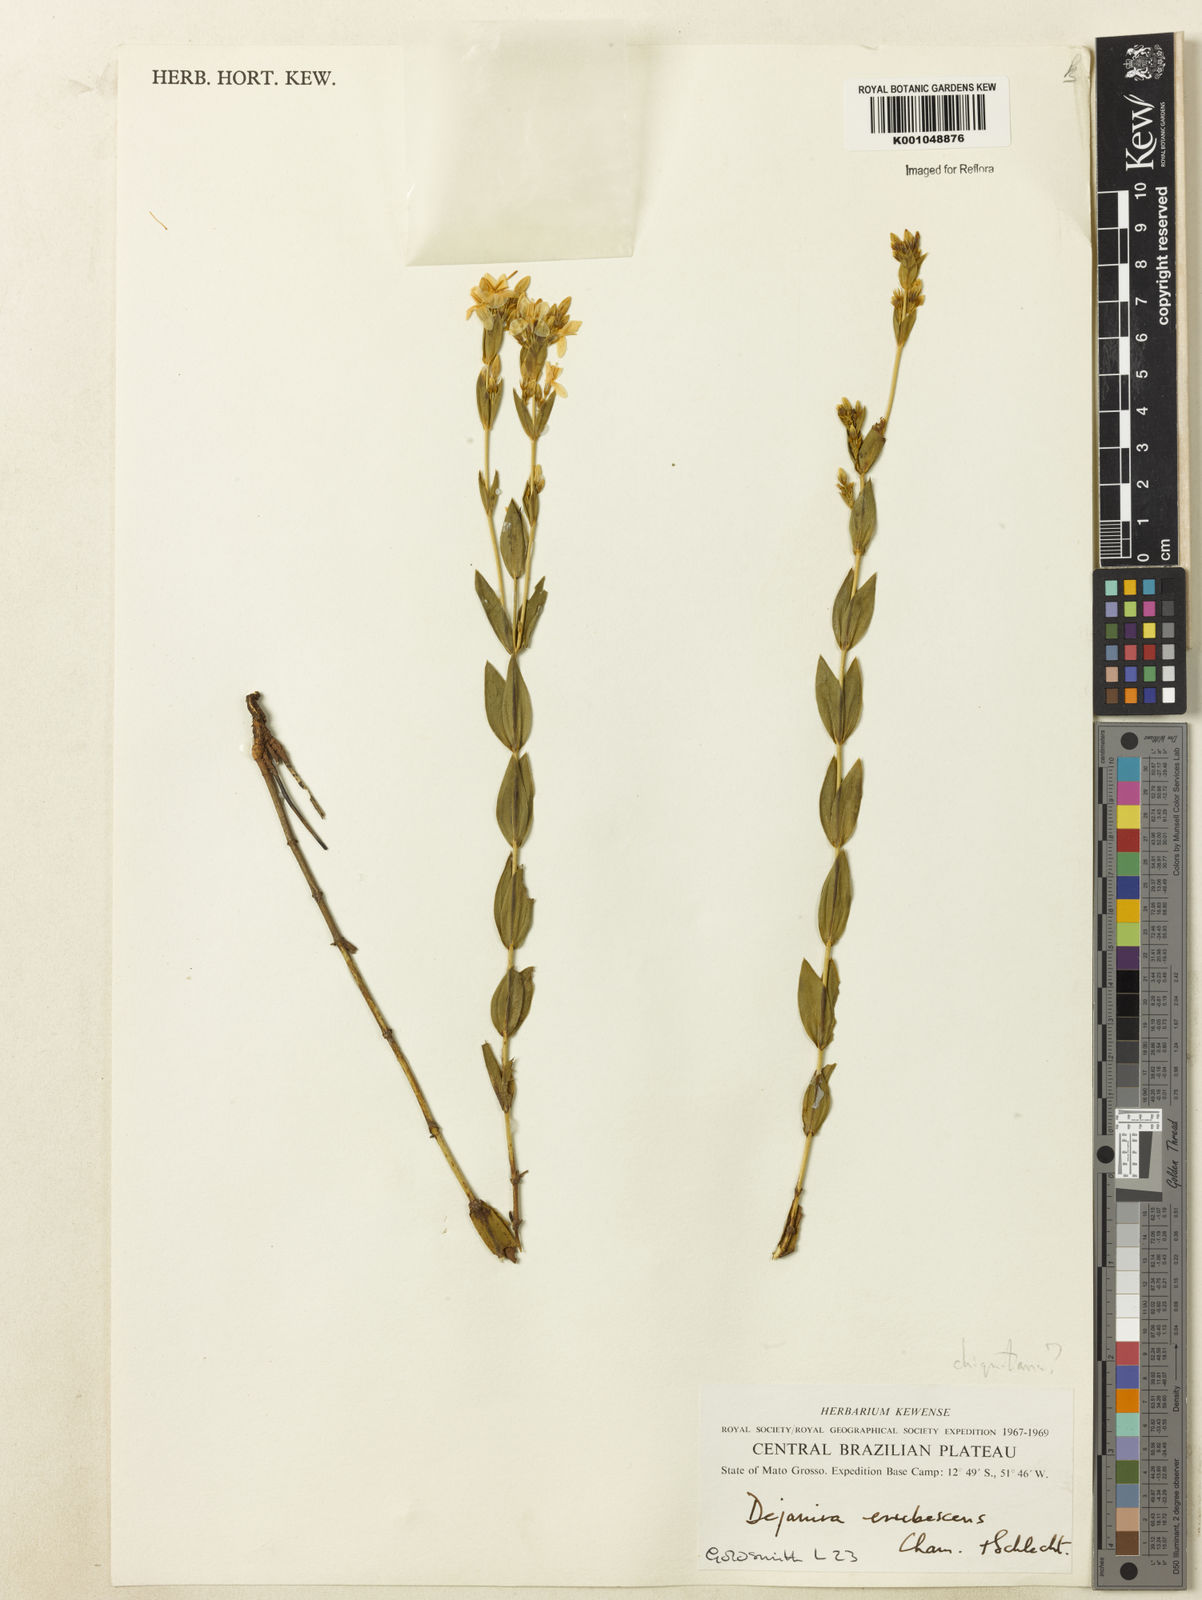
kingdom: Plantae
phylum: Tracheophyta
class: Magnoliopsida
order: Gentianales
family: Gentianaceae
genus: Deianira
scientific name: Deianira chiquitana
